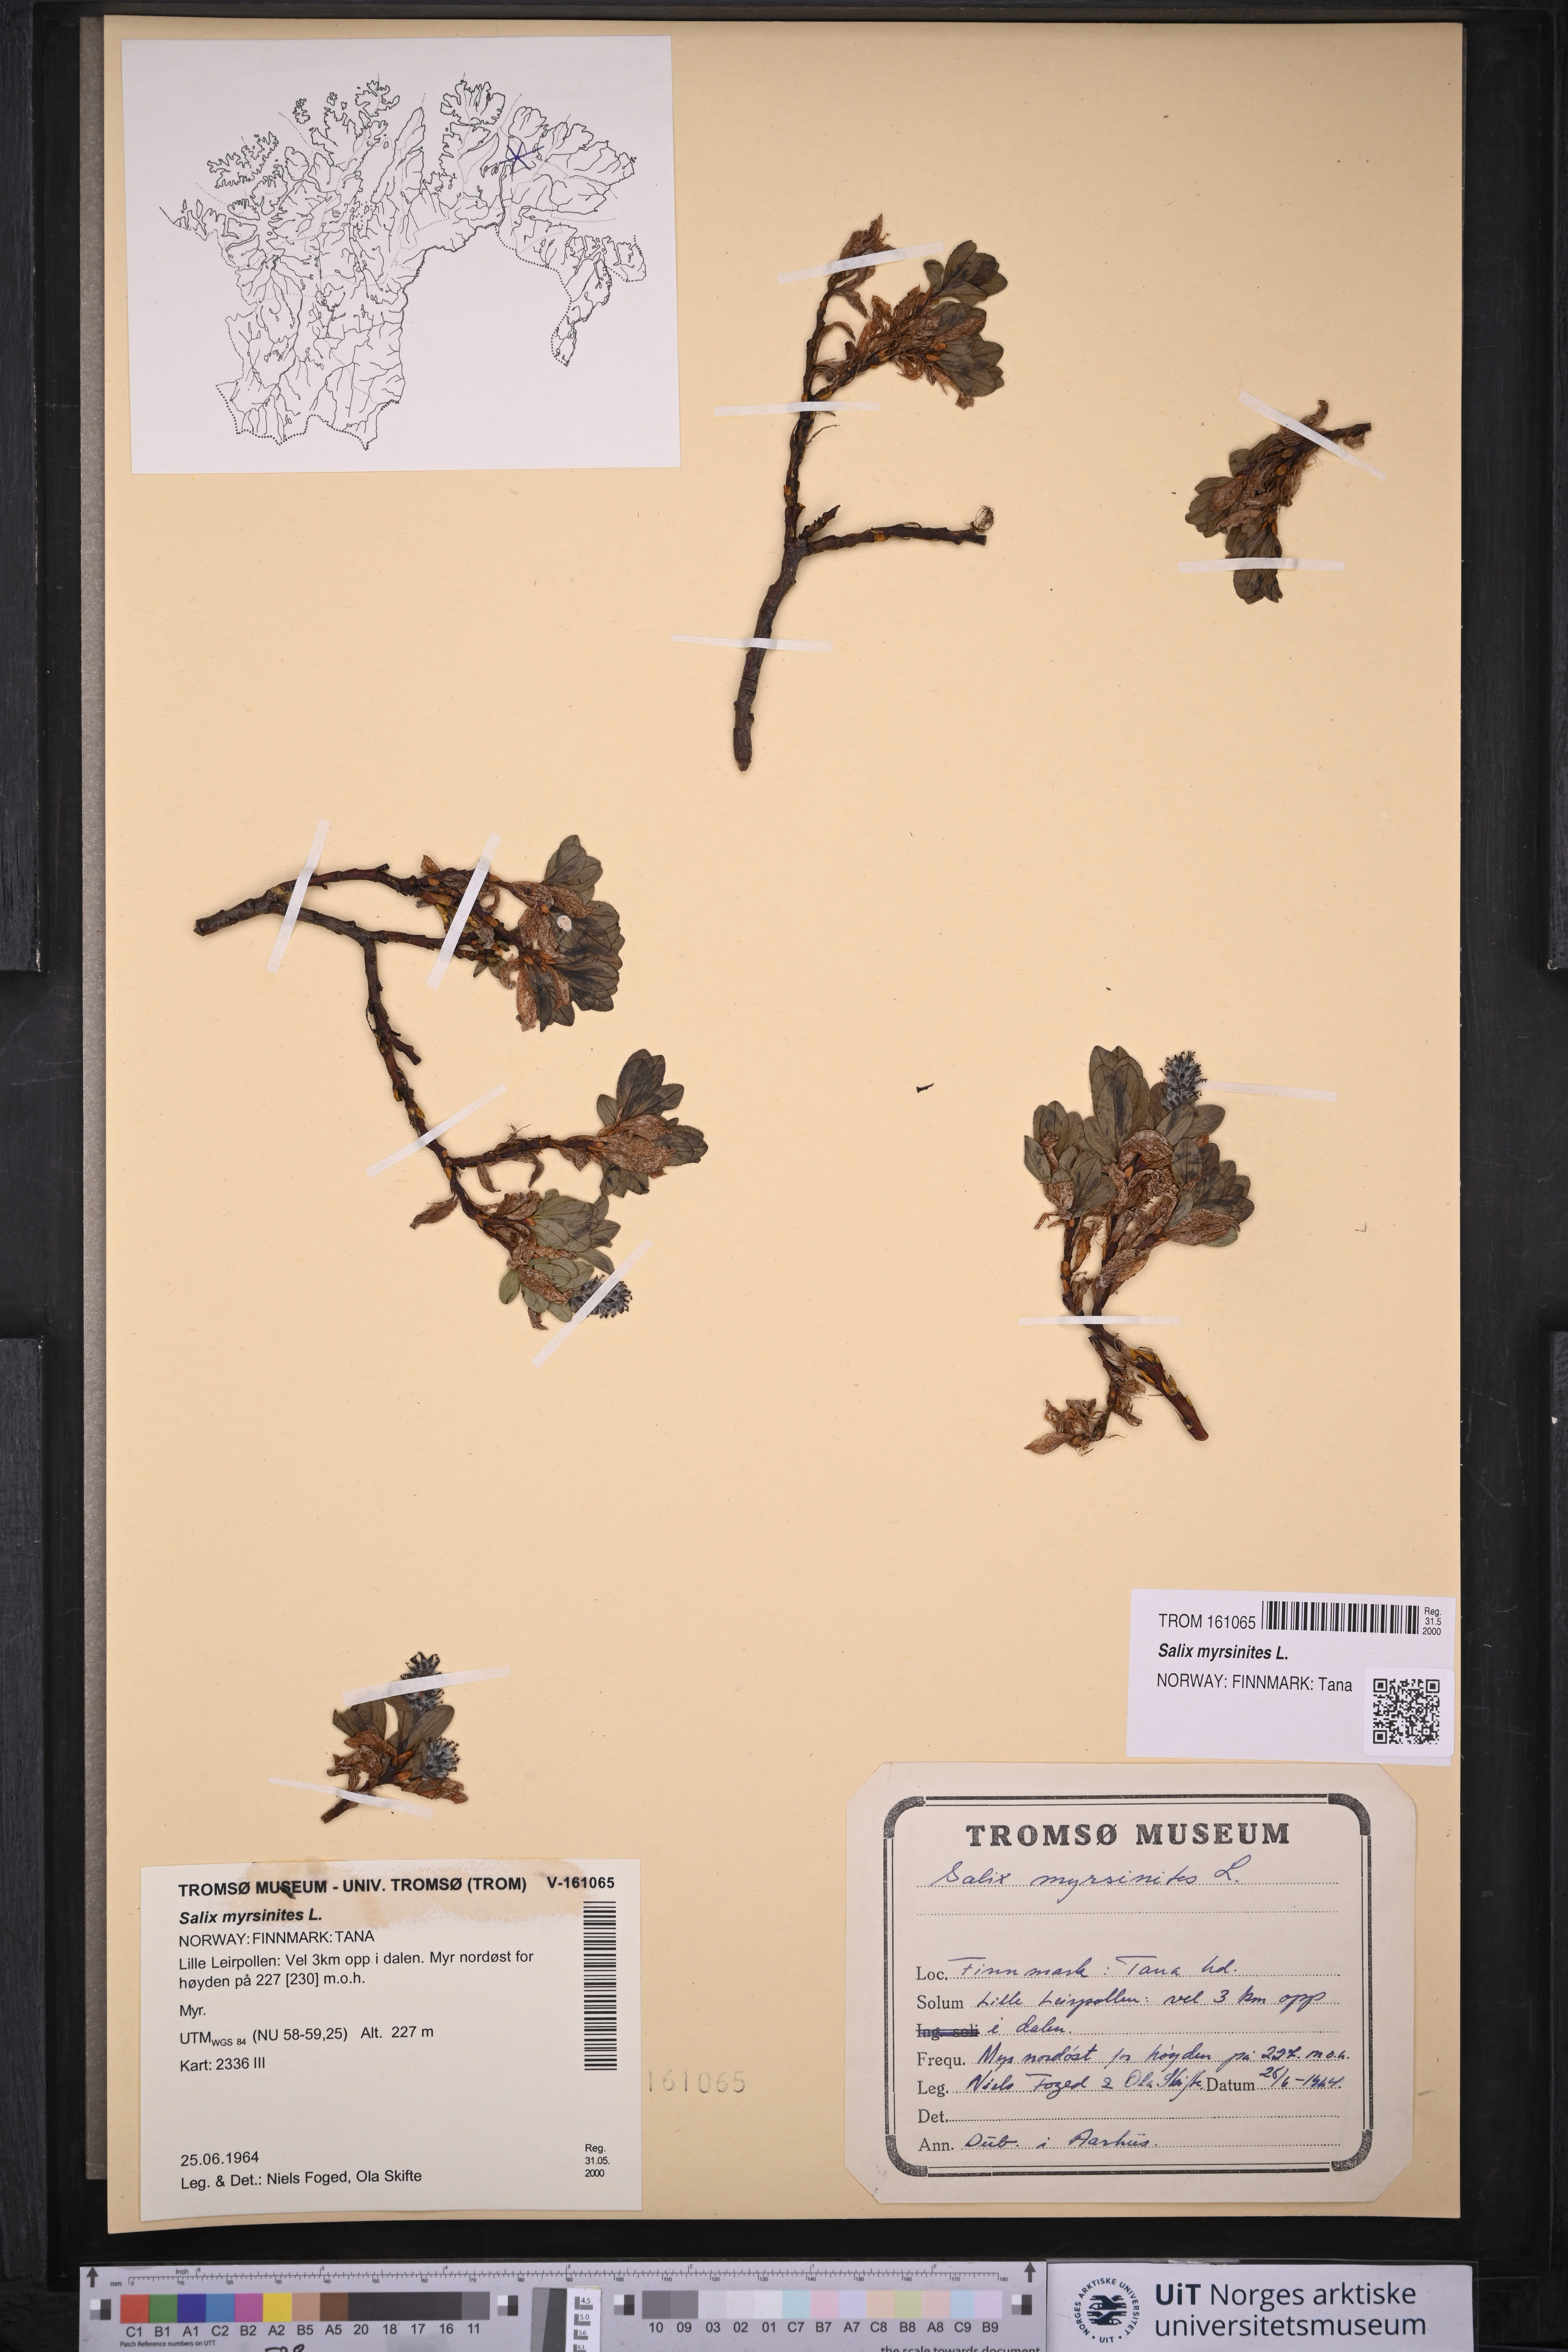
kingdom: Plantae
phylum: Tracheophyta
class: Magnoliopsida
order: Malpighiales
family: Salicaceae
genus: Salix
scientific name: Salix myrsinites
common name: Myrtle willow
